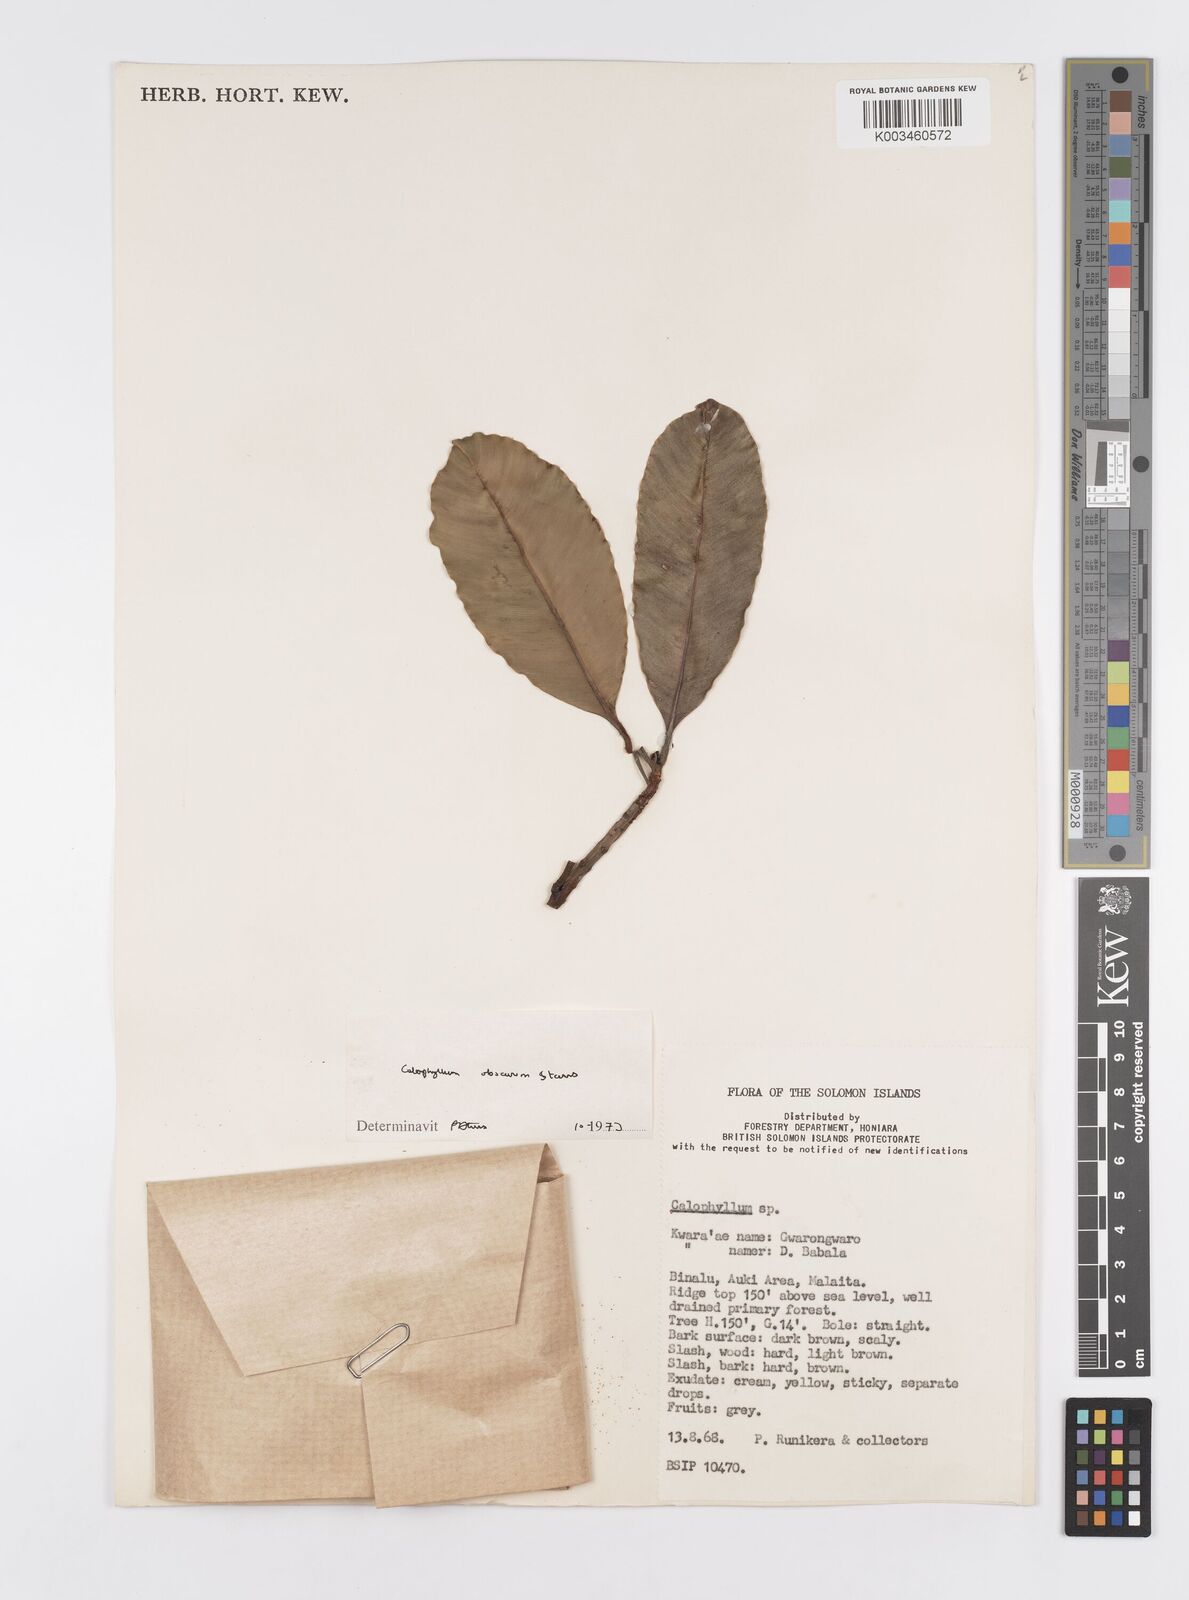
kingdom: Plantae
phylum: Tracheophyta
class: Magnoliopsida
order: Malpighiales
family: Calophyllaceae
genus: Calophyllum
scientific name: Calophyllum obscurum
